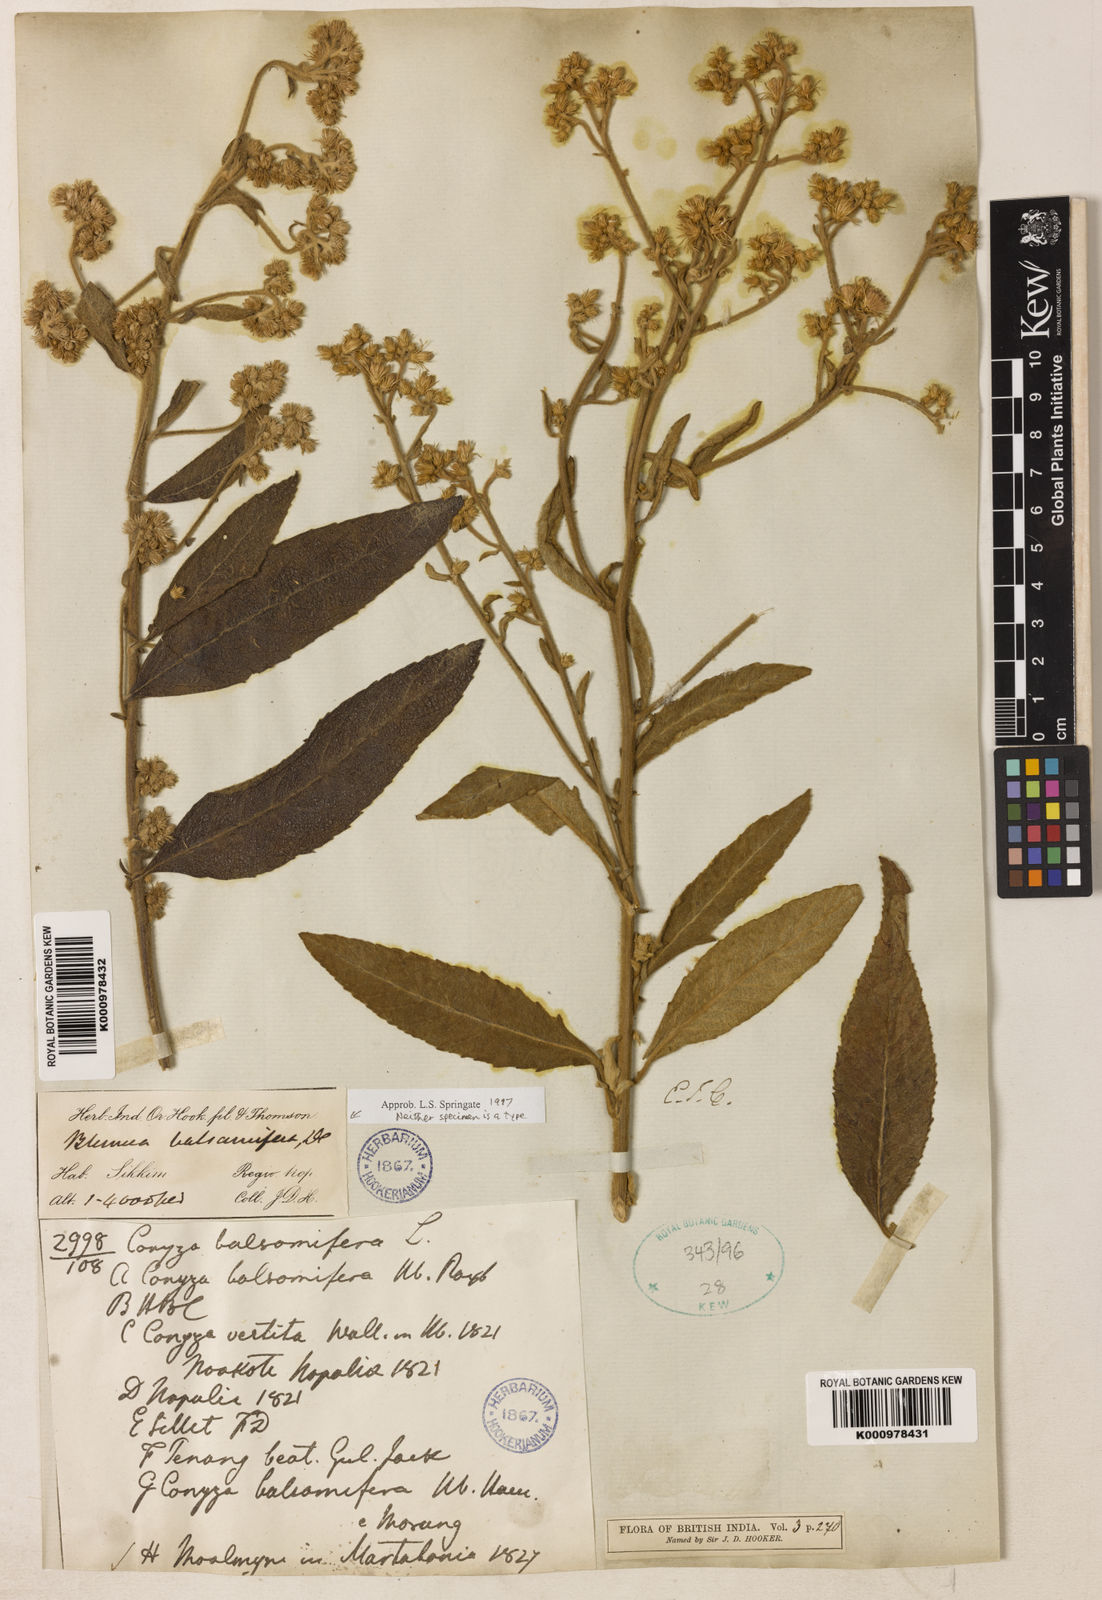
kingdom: Plantae
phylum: Tracheophyta
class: Magnoliopsida
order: Asterales
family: Asteraceae
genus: Blumea
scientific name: Blumea balsamifera
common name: Ngai camphor
